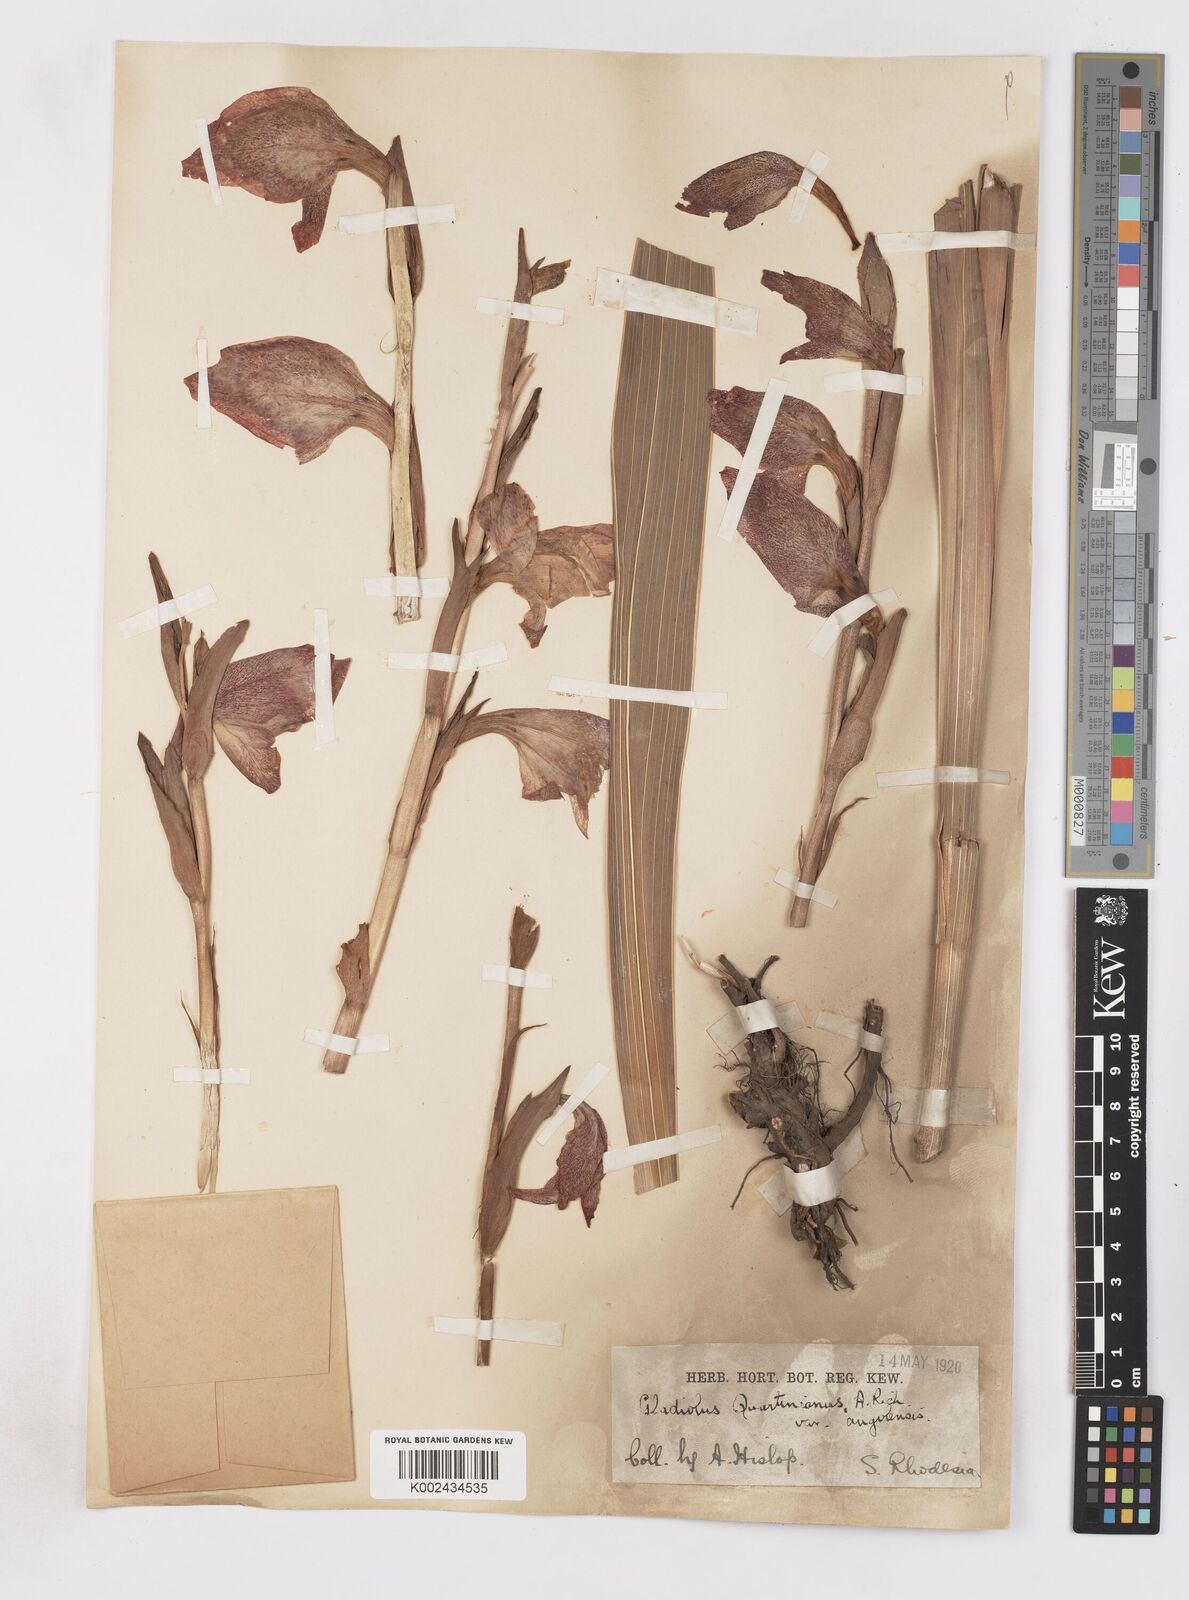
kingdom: Plantae
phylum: Tracheophyta
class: Liliopsida
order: Asparagales
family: Iridaceae
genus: Gladiolus
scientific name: Gladiolus dalenii
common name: Cornflag
